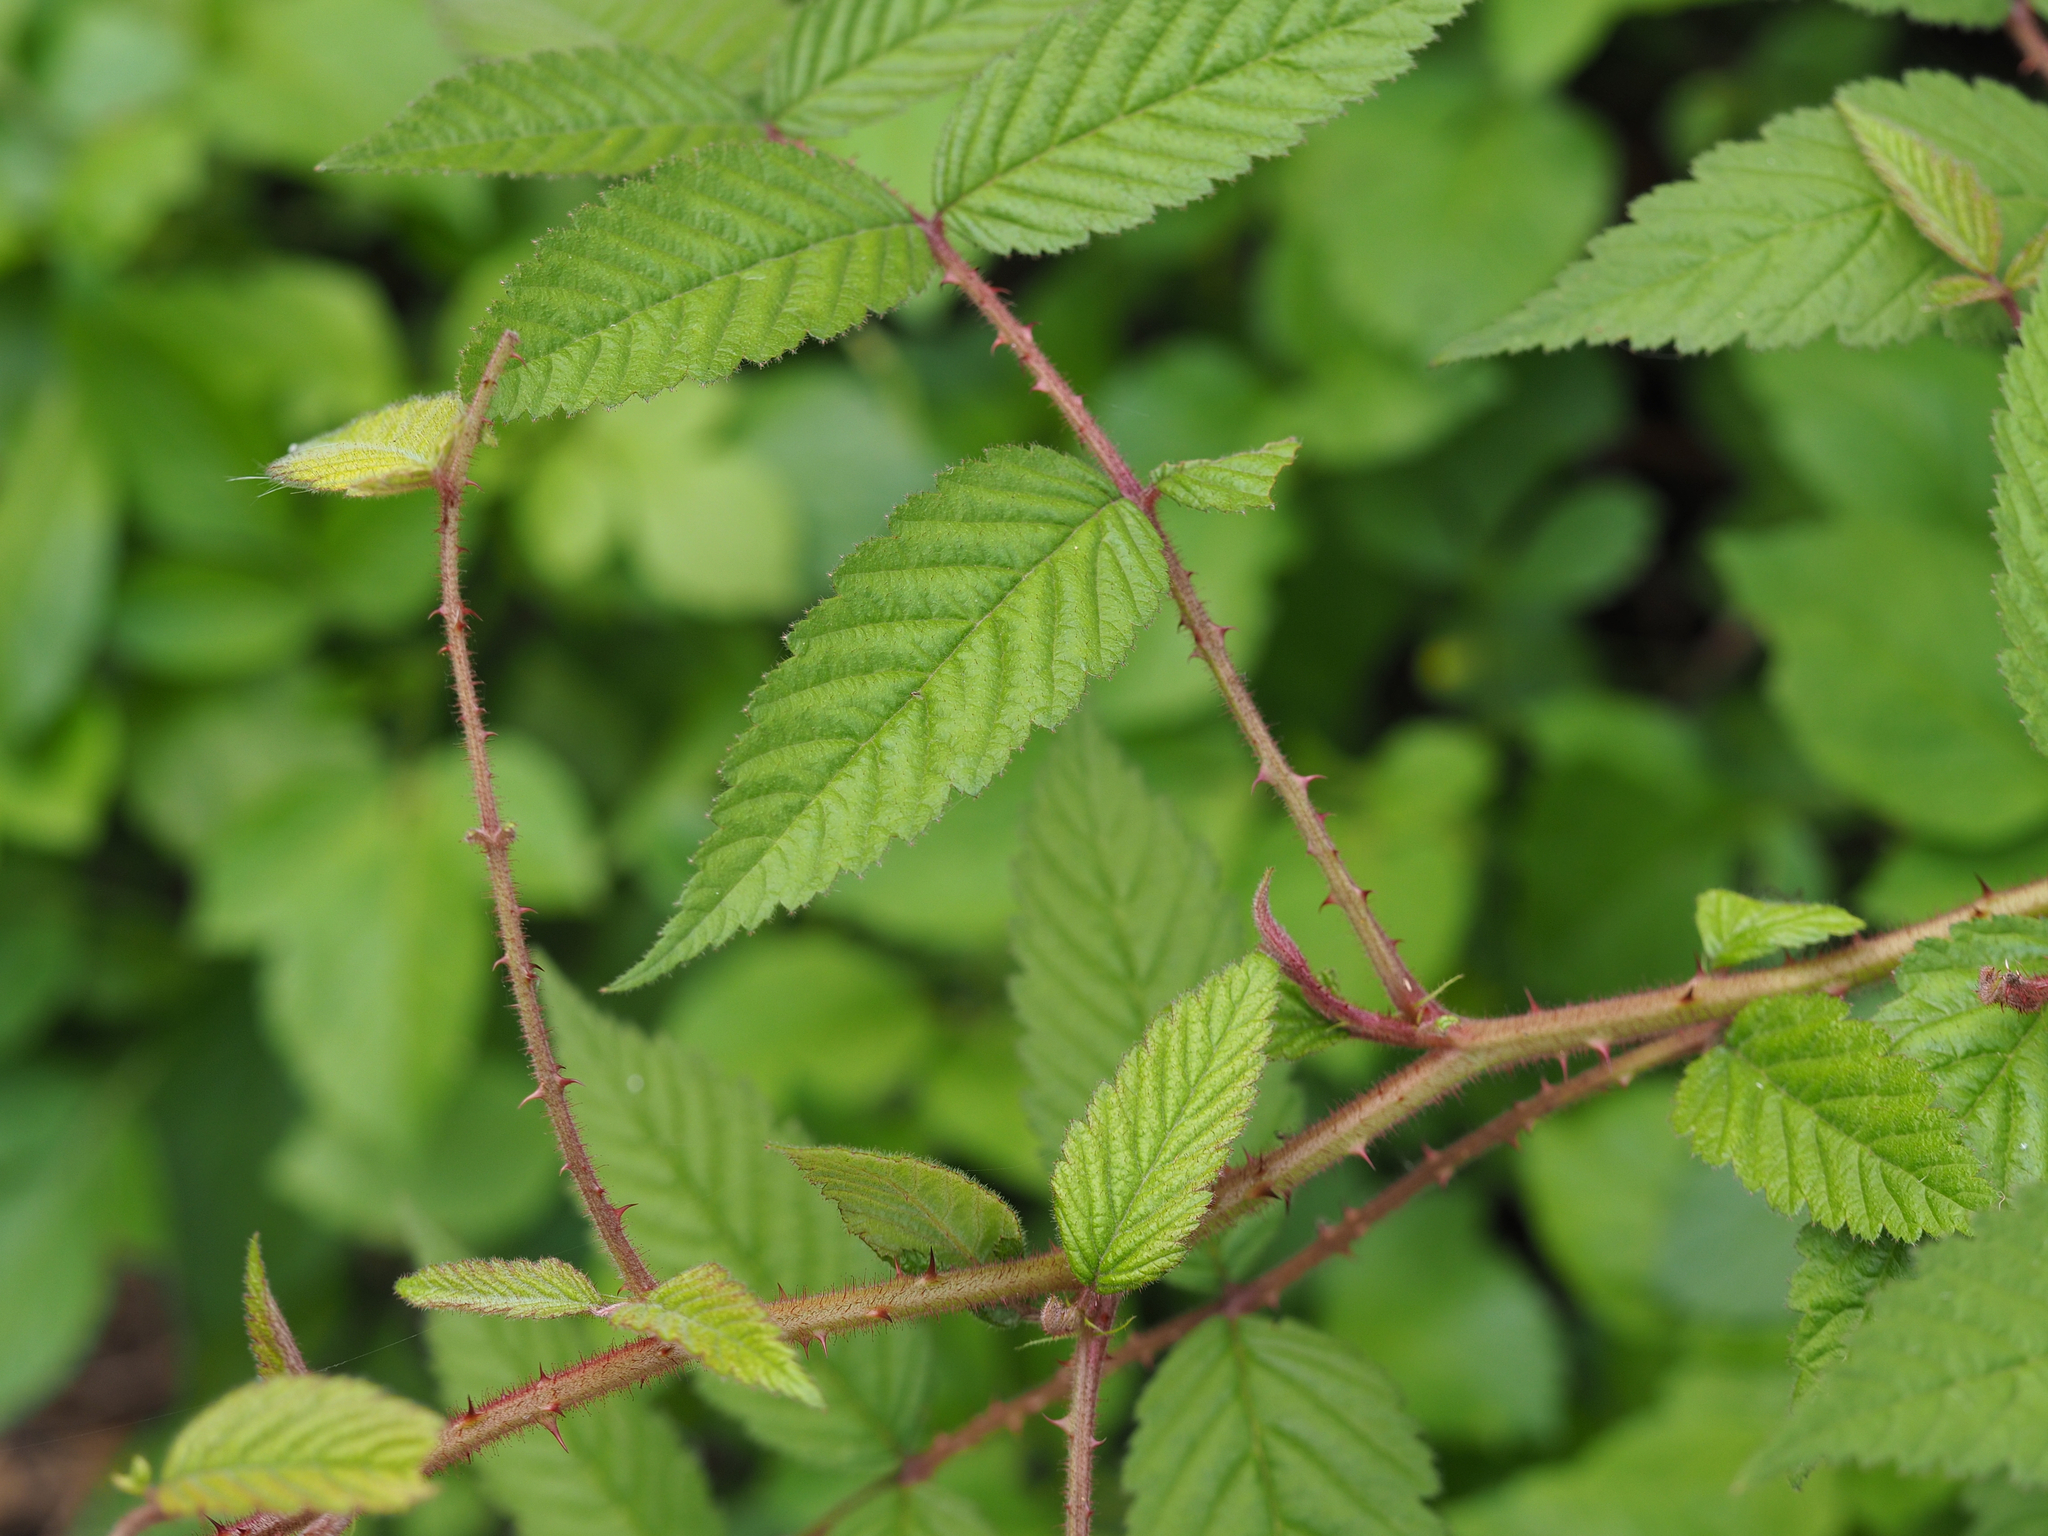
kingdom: Plantae
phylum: Tracheophyta
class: Magnoliopsida
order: Rosales
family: Rosaceae
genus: Rubus
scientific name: Rubus croceacanthus
